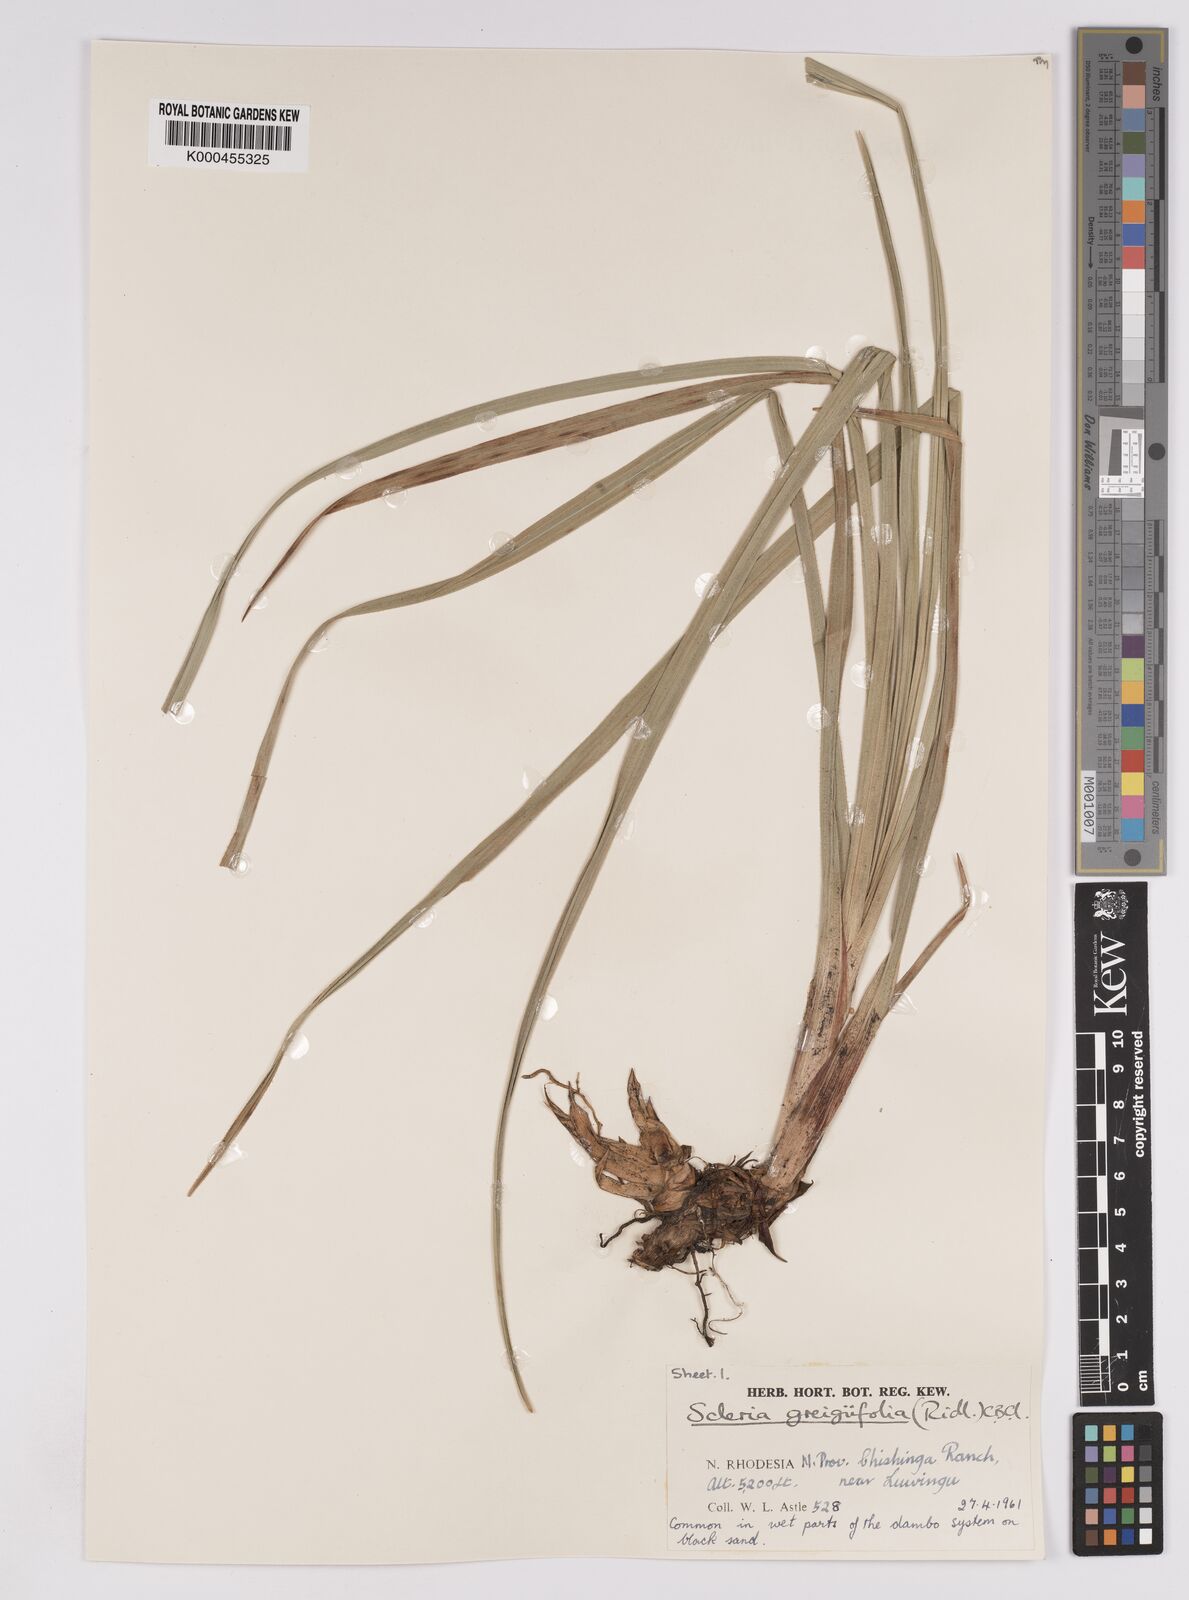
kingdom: Plantae
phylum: Tracheophyta
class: Liliopsida
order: Poales
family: Cyperaceae
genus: Scleria
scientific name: Scleria greigiifolia
